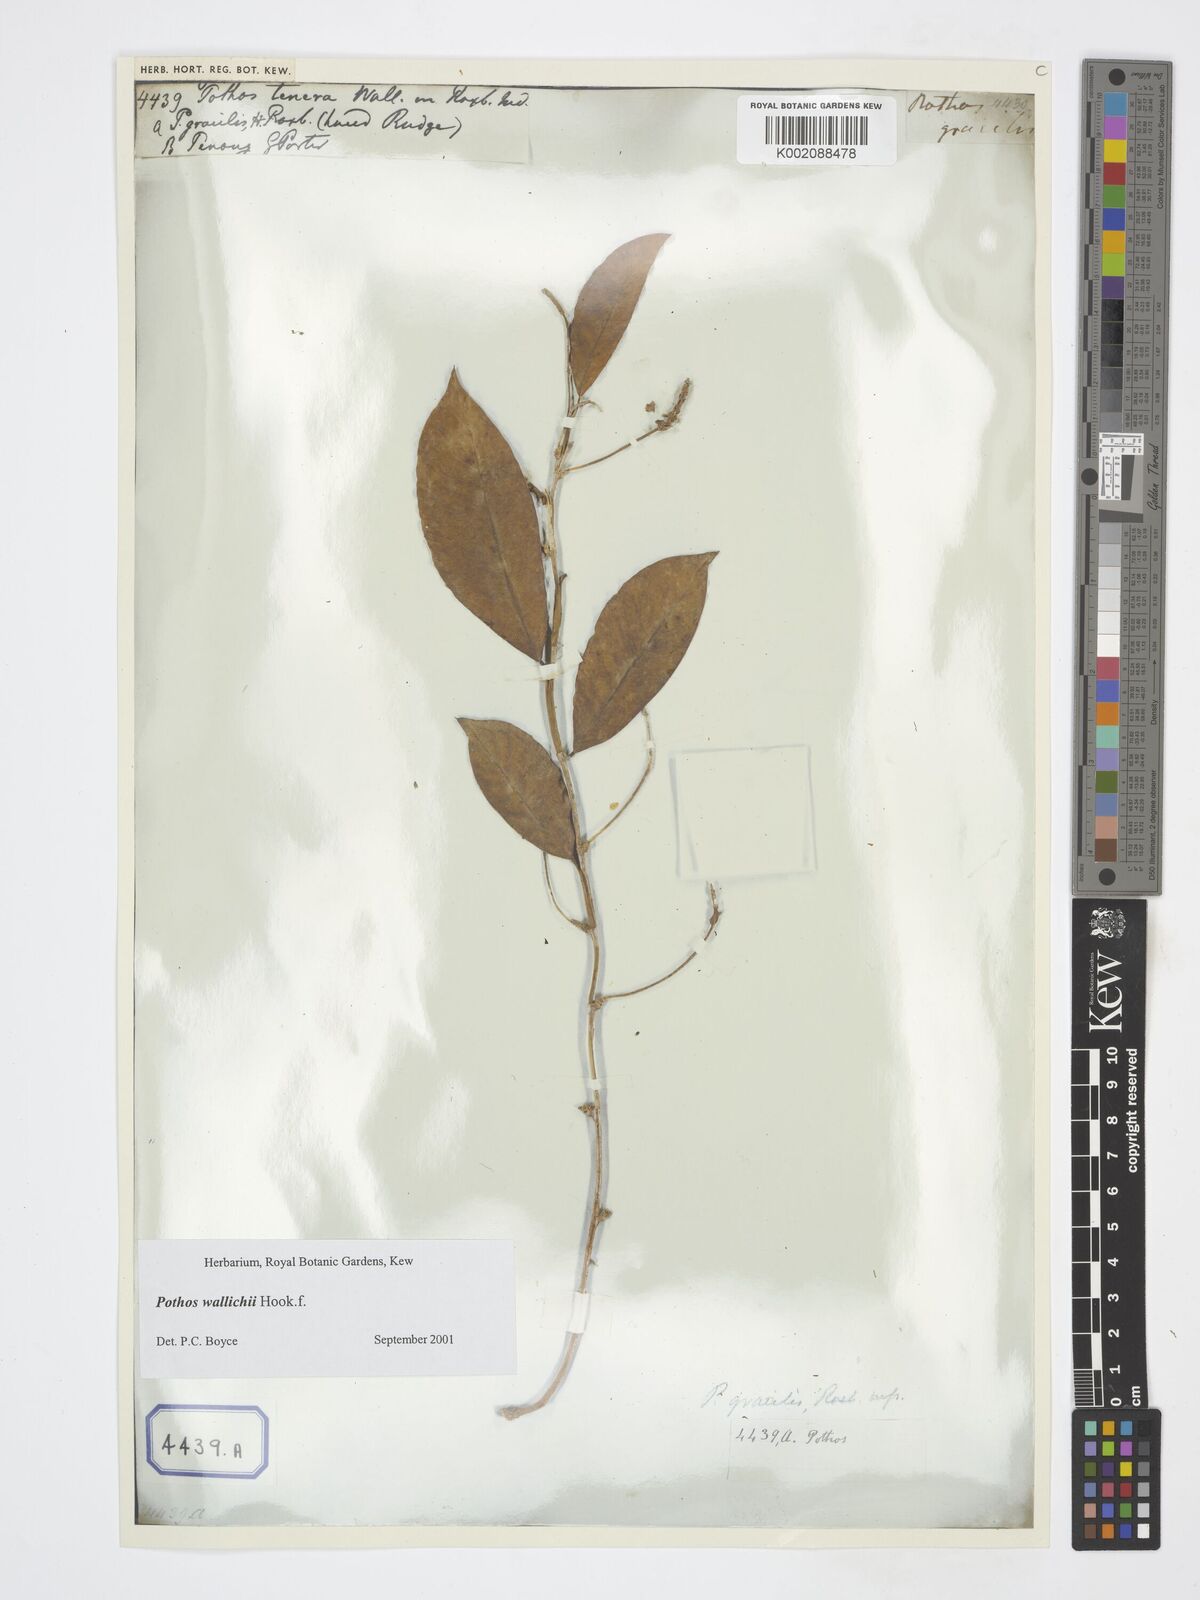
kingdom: Plantae
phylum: Tracheophyta
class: Liliopsida
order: Alismatales
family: Araceae
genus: Pothos
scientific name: Pothos wallichii
